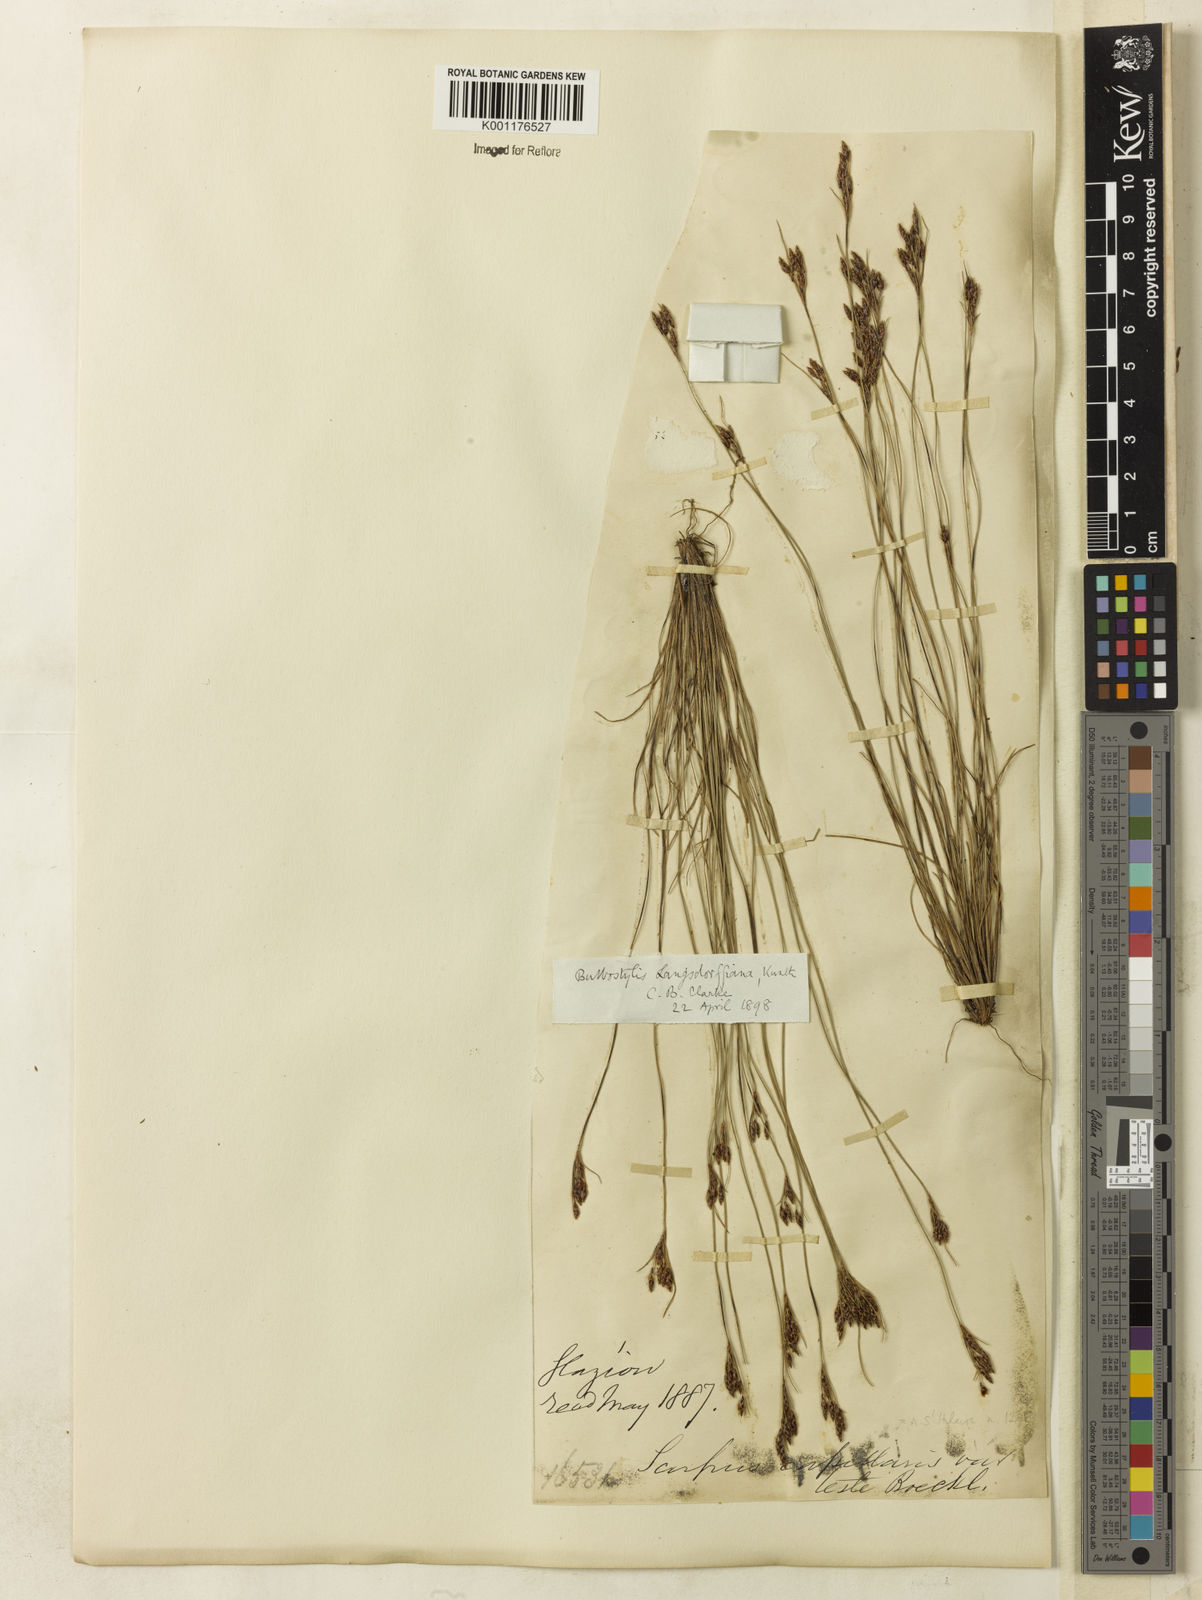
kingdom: Plantae
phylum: Tracheophyta
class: Liliopsida
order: Poales
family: Cyperaceae
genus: Bulbostylis
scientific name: Bulbostylis juncoides
